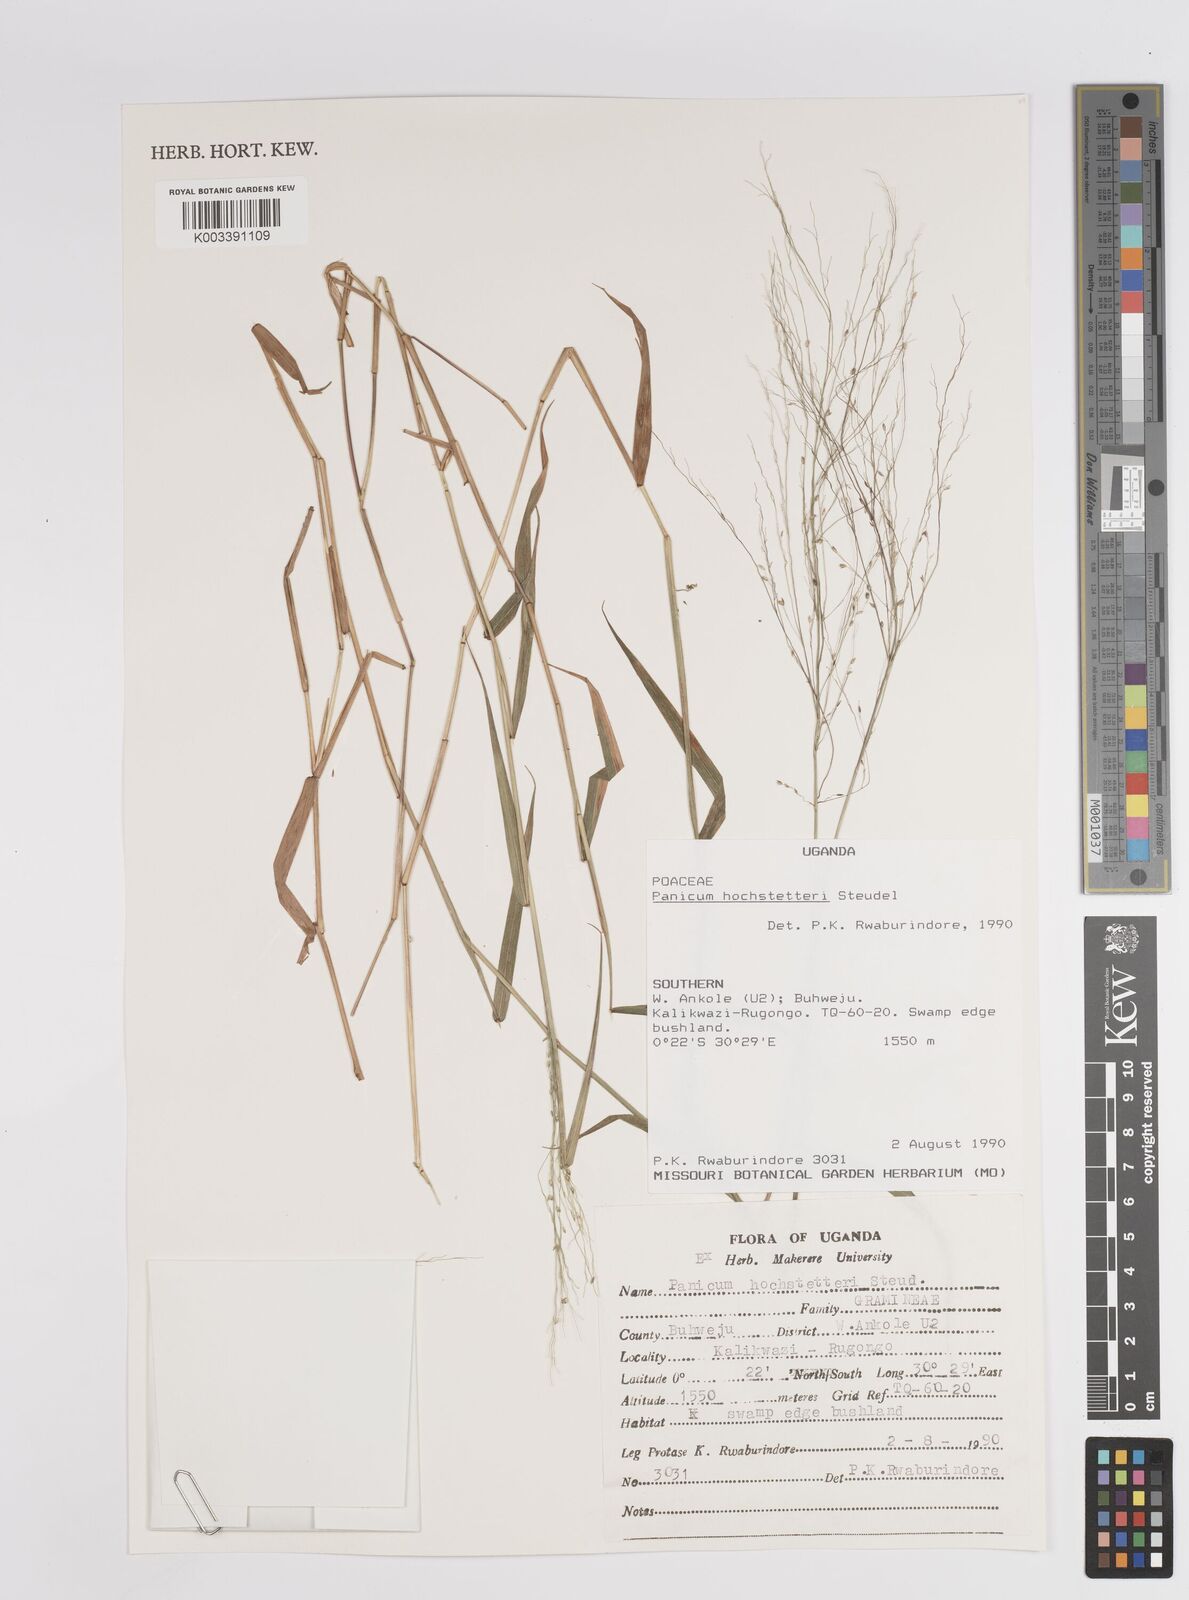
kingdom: Plantae
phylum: Tracheophyta
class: Liliopsida
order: Poales
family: Poaceae
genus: Panicum
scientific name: Panicum chionachne
